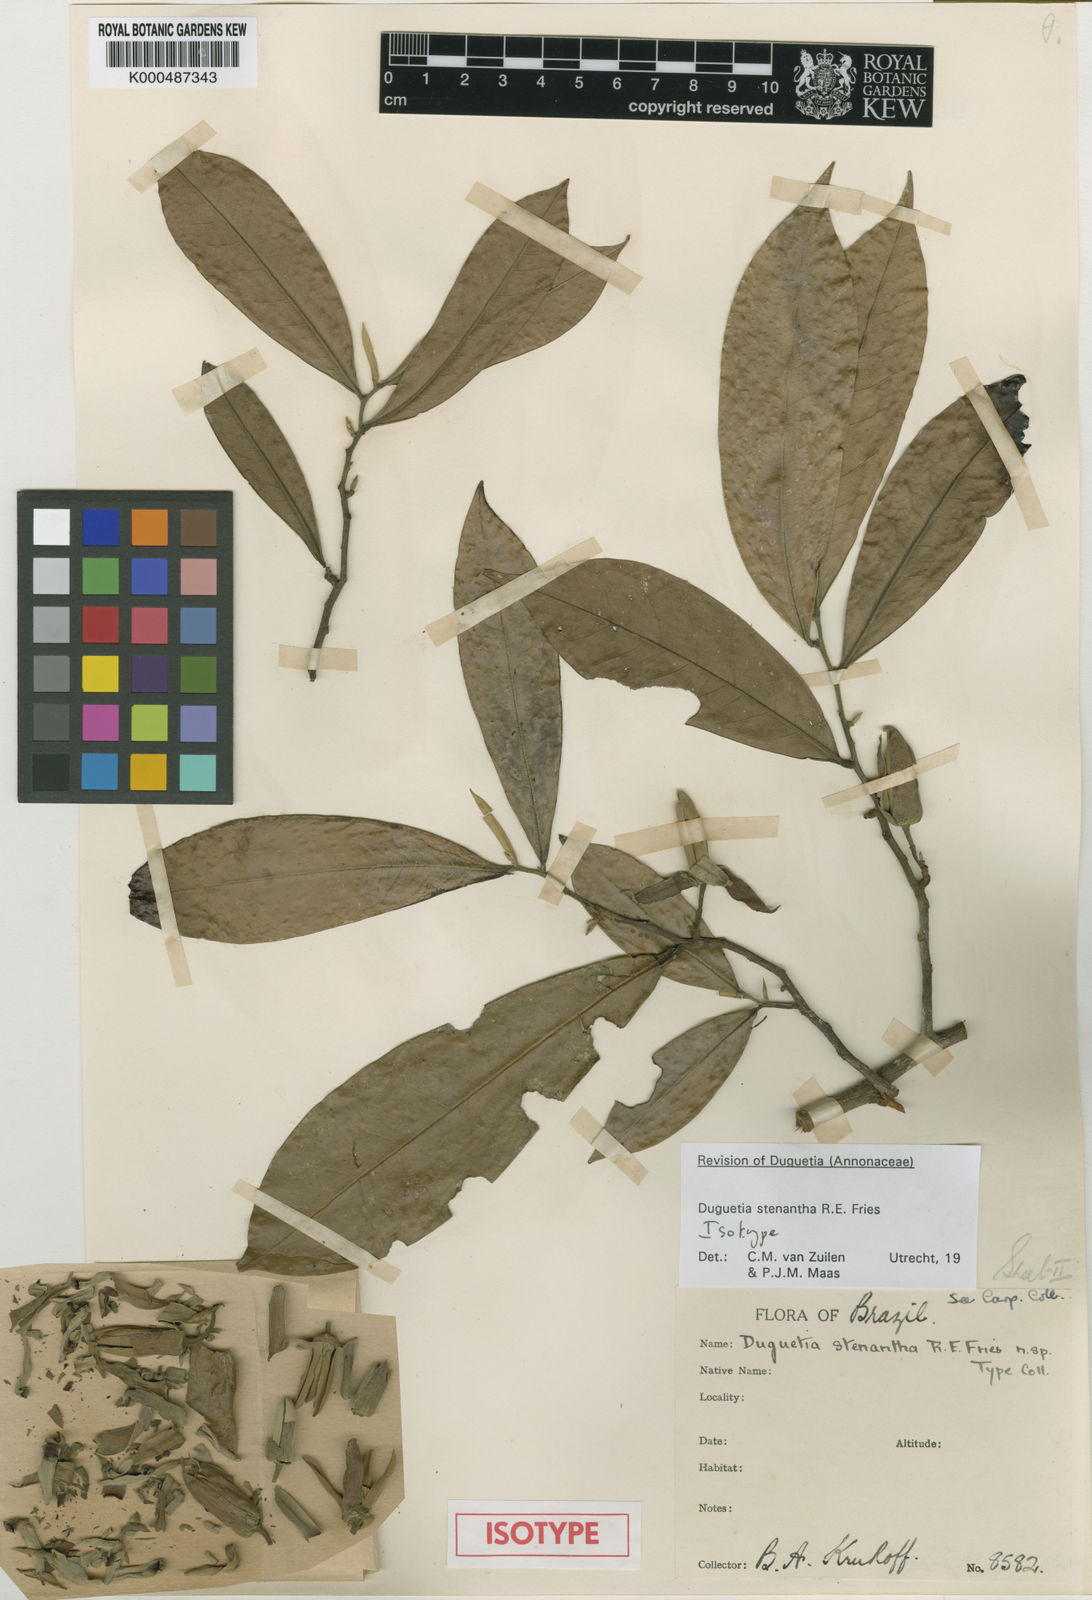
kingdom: Plantae
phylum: Tracheophyta
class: Magnoliopsida
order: Magnoliales
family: Annonaceae
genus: Duguetia
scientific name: Duguetia stenantha
